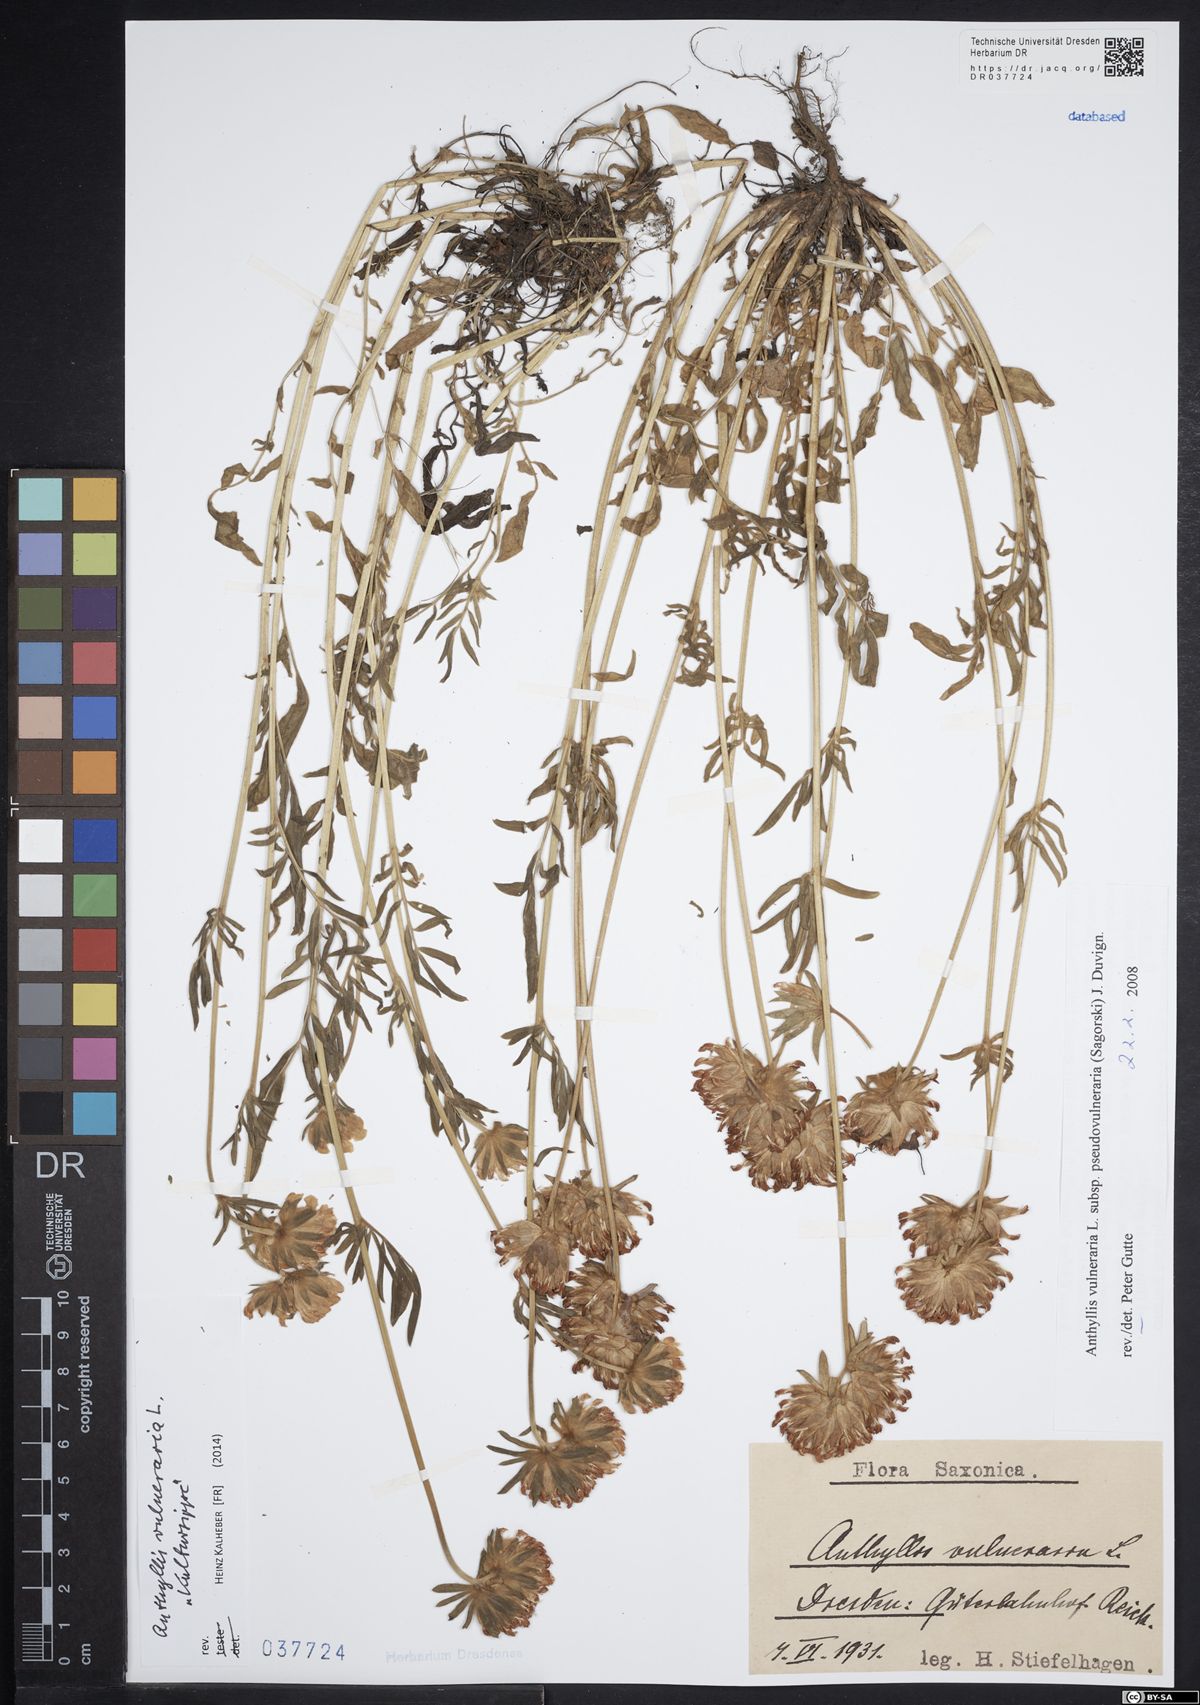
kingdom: Plantae
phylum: Tracheophyta
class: Magnoliopsida
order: Fabales
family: Fabaceae
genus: Anthyllis
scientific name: Anthyllis vulneraria
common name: Kidney vetch
